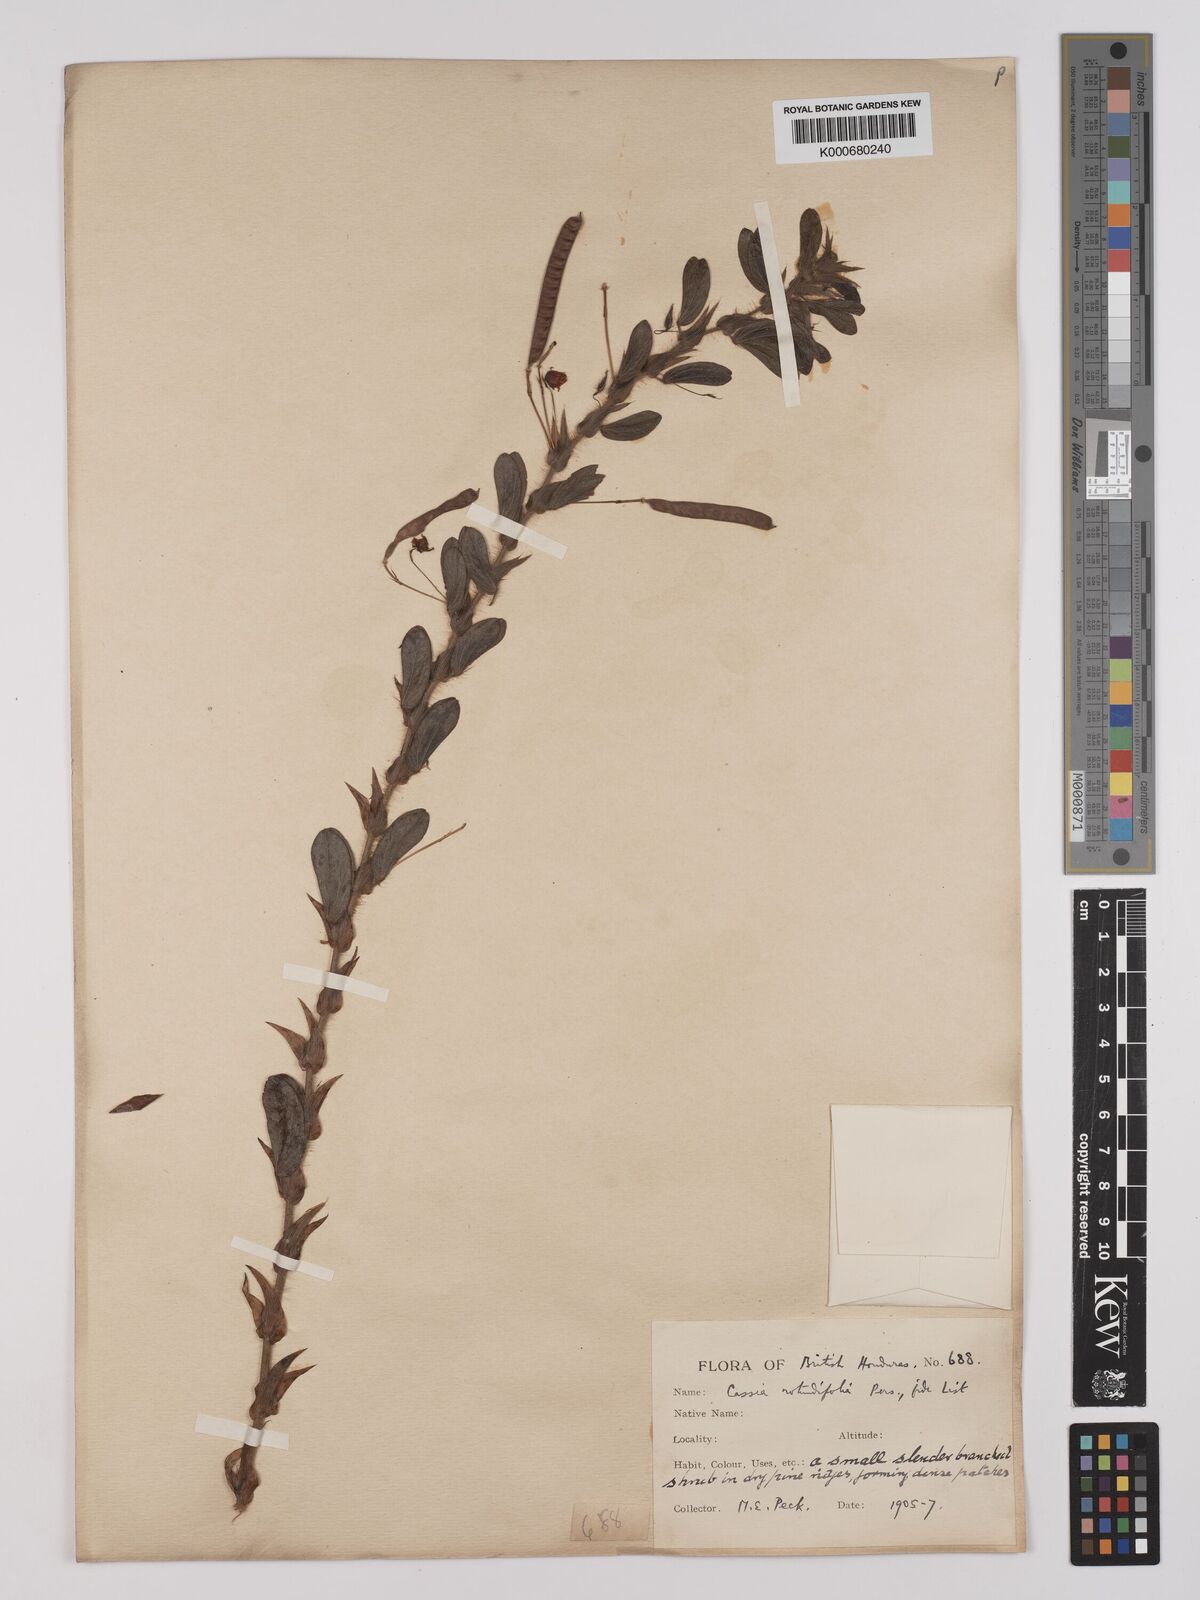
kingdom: Plantae
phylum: Tracheophyta
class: Magnoliopsida
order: Fabales
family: Fabaceae
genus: Chamaecrista
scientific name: Chamaecrista rotundifolia
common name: Round-leaf cassia
